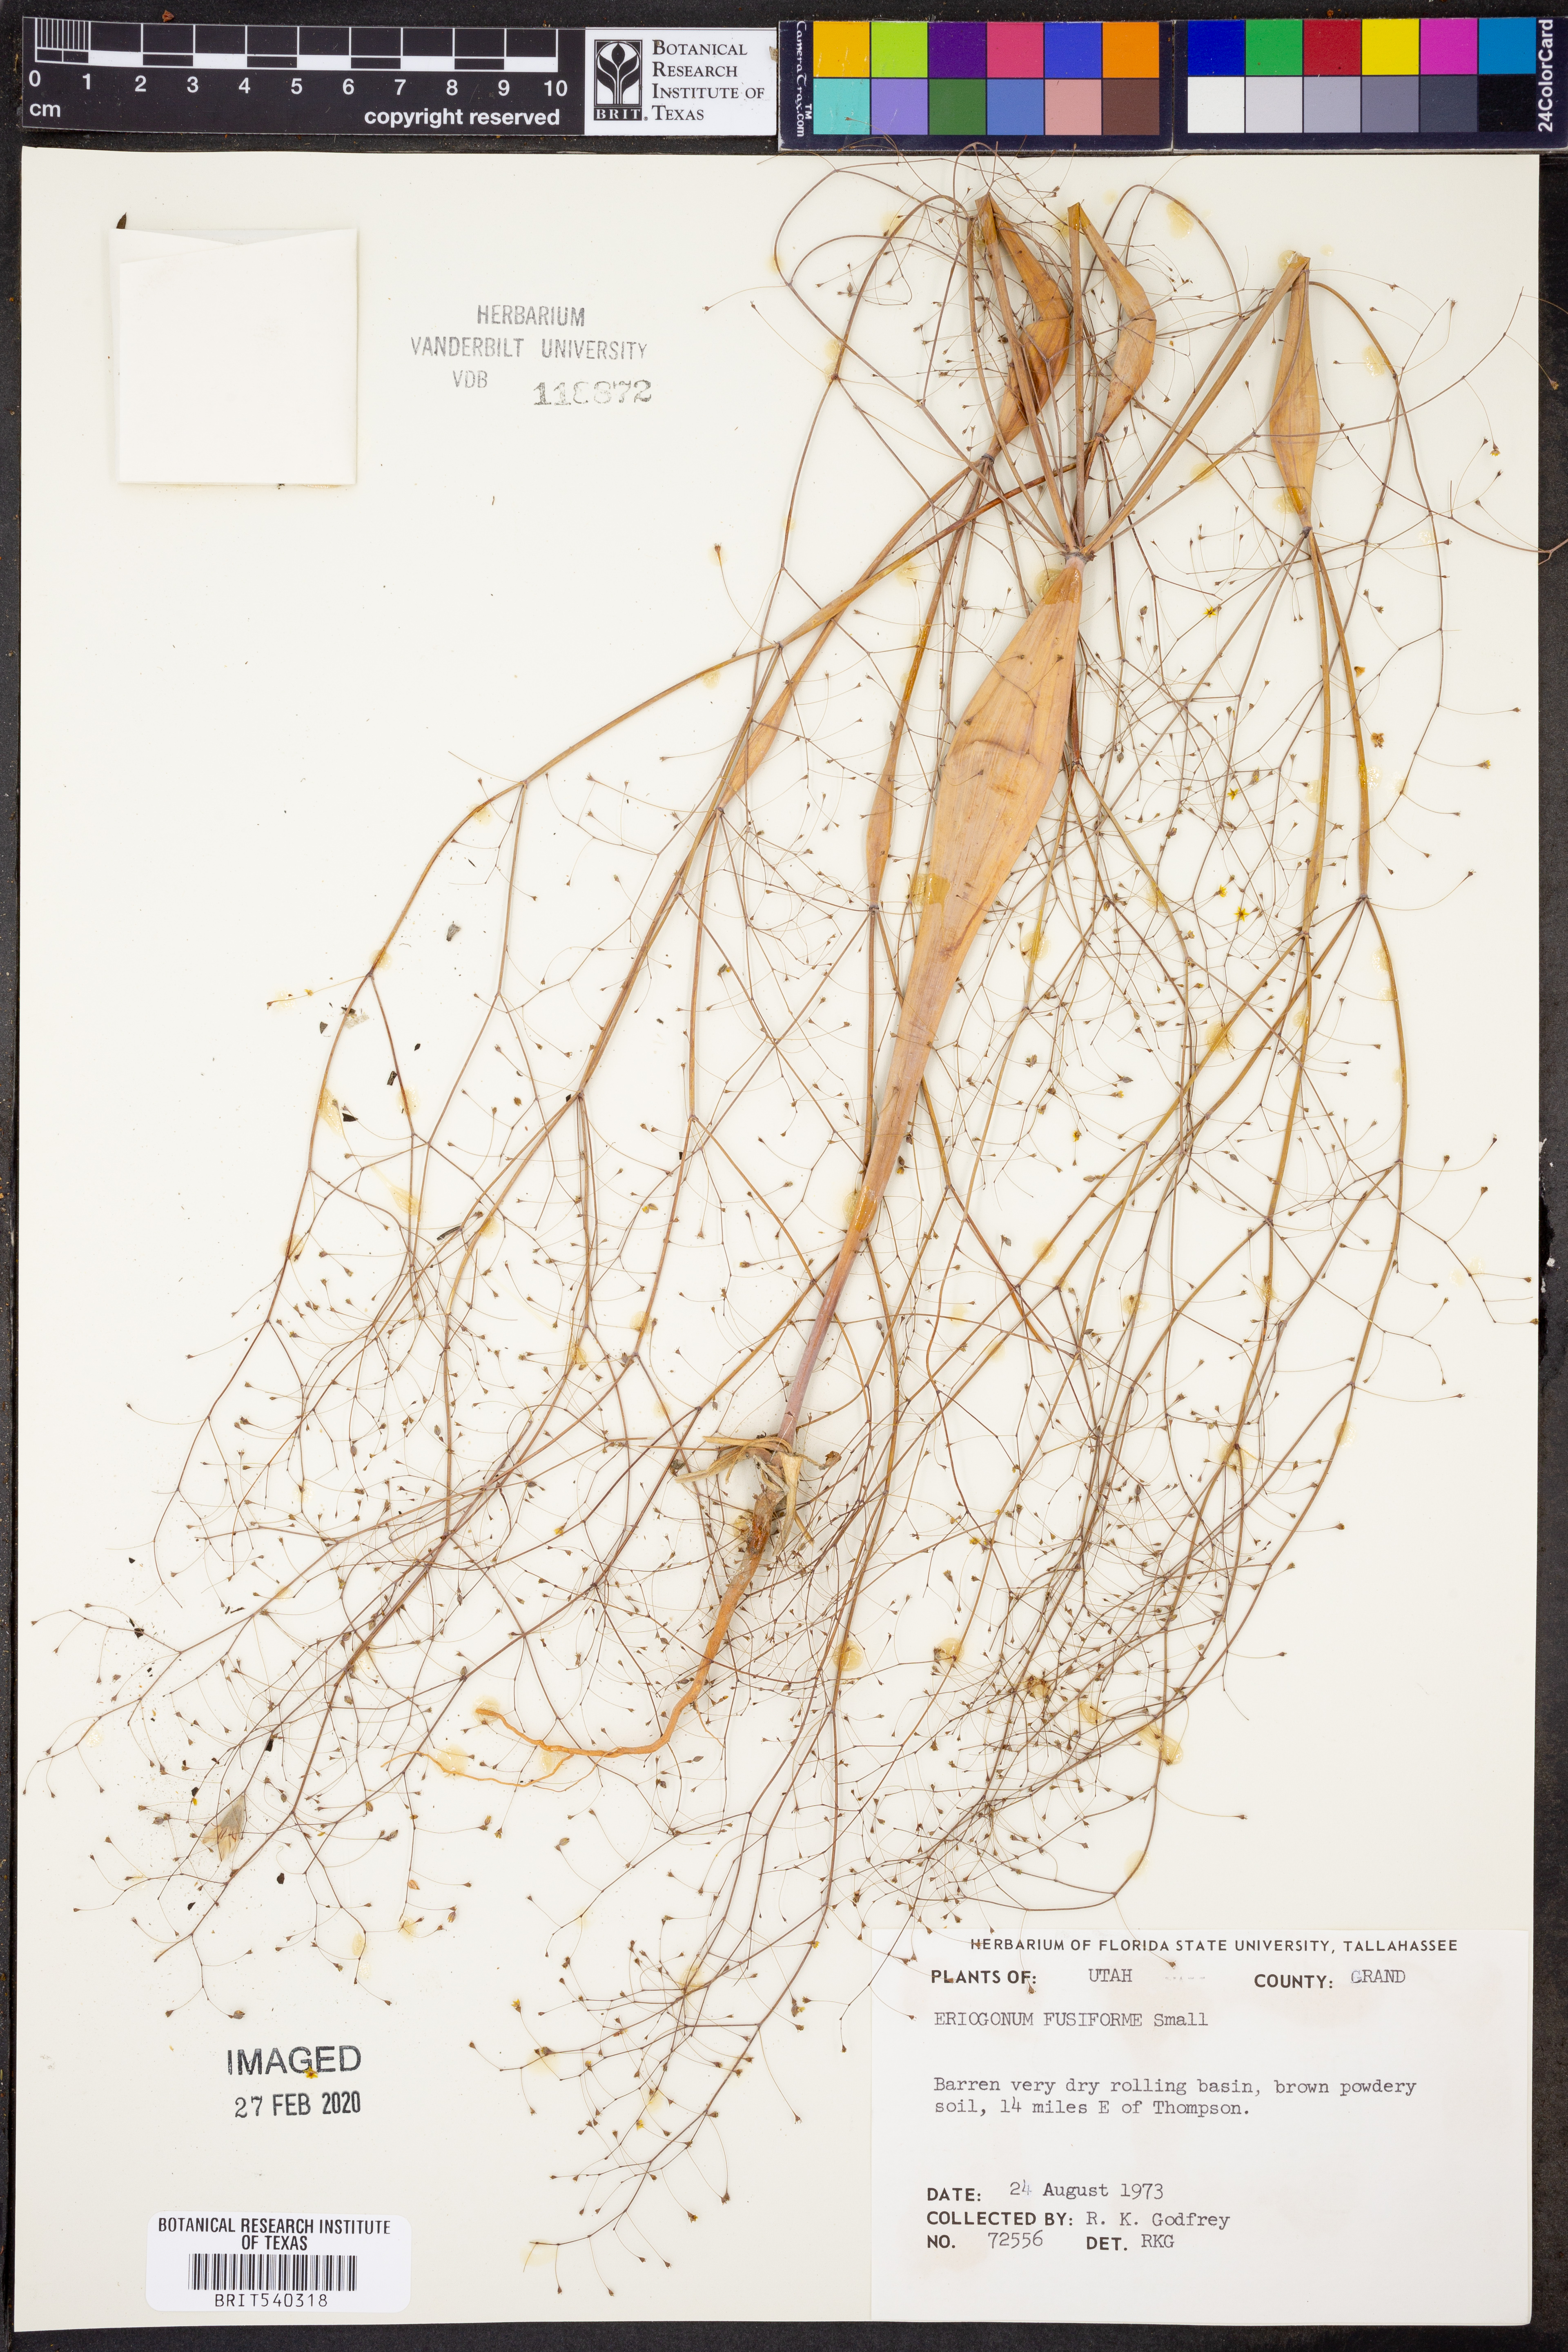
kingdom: Plantae
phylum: Tracheophyta
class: Magnoliopsida
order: Caryophyllales
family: Polygonaceae
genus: Eriogonum
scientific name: Eriogonum fusiforme
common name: Grand valley desert trumpet
